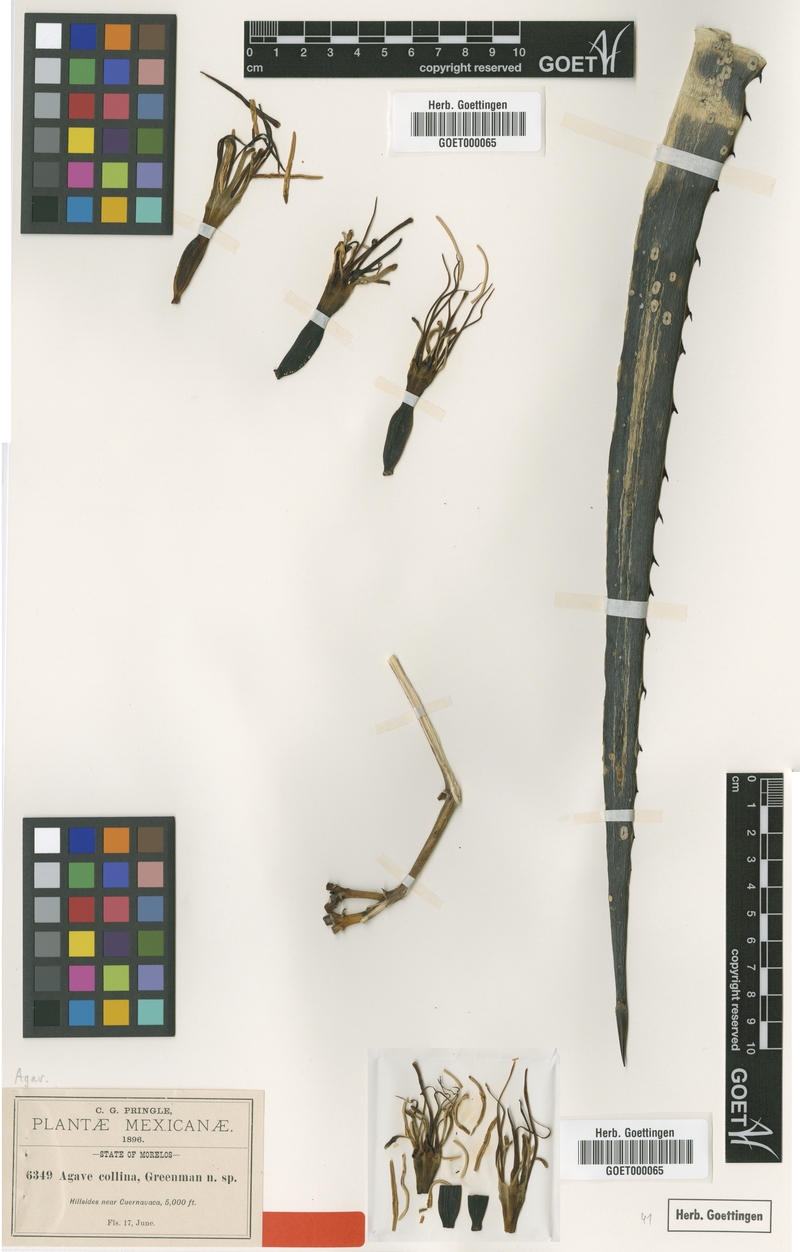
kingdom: Plantae
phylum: Tracheophyta
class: Liliopsida
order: Asparagales
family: Asparagaceae
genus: Agave
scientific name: Agave collina
